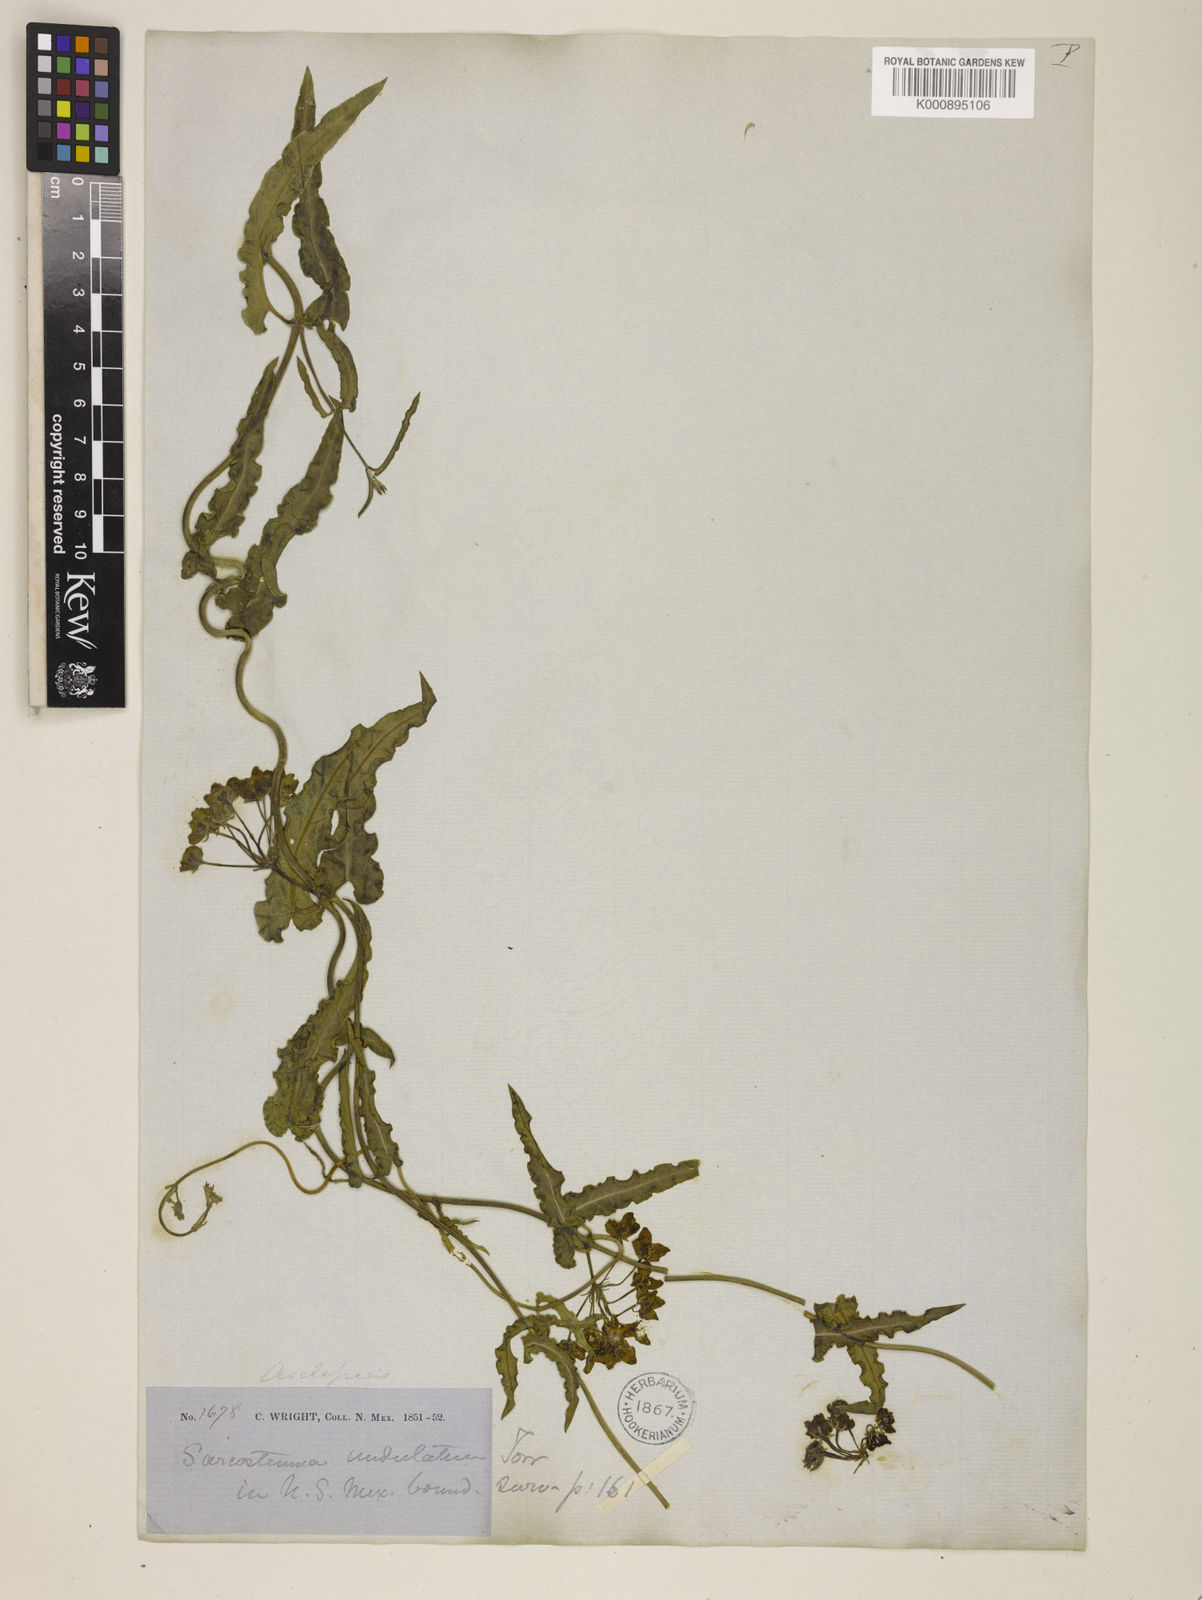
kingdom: Plantae
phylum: Tracheophyta
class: Magnoliopsida
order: Gentianales
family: Apocynaceae
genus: Funastrum
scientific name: Funastrum crispum
